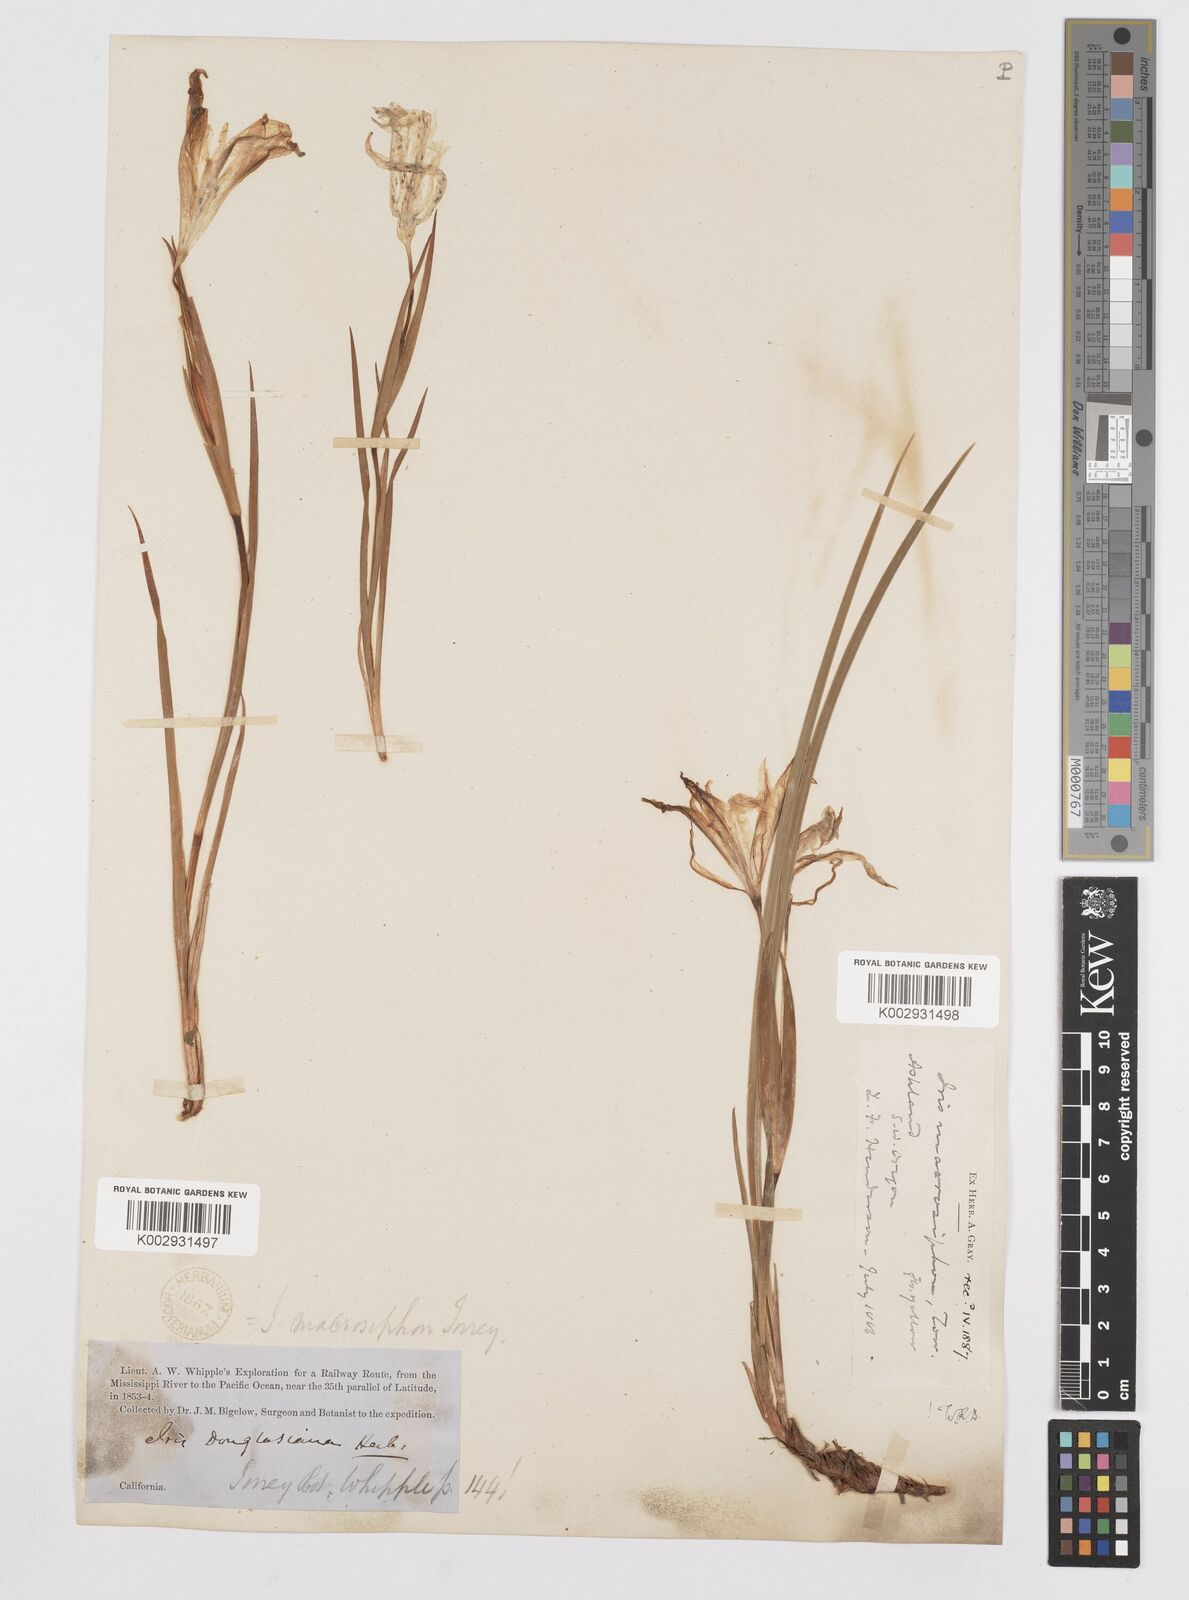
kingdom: Plantae
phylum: Tracheophyta
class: Liliopsida
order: Asparagales
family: Iridaceae
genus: Iris
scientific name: Iris macrosiphon
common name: Ground iris
